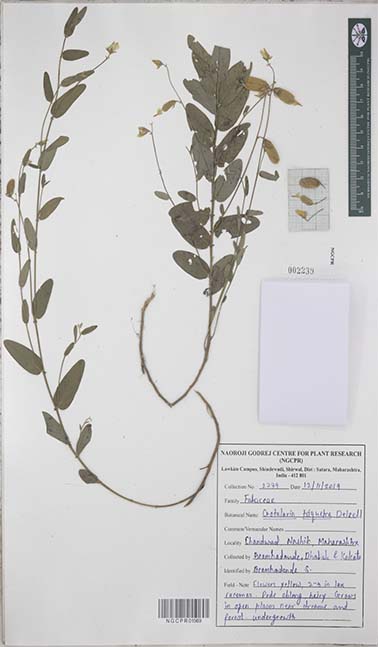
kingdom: Plantae
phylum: Tracheophyta
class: Magnoliopsida
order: Fabales
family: Fabaceae
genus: Crotalaria
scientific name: Crotalaria triquetra
